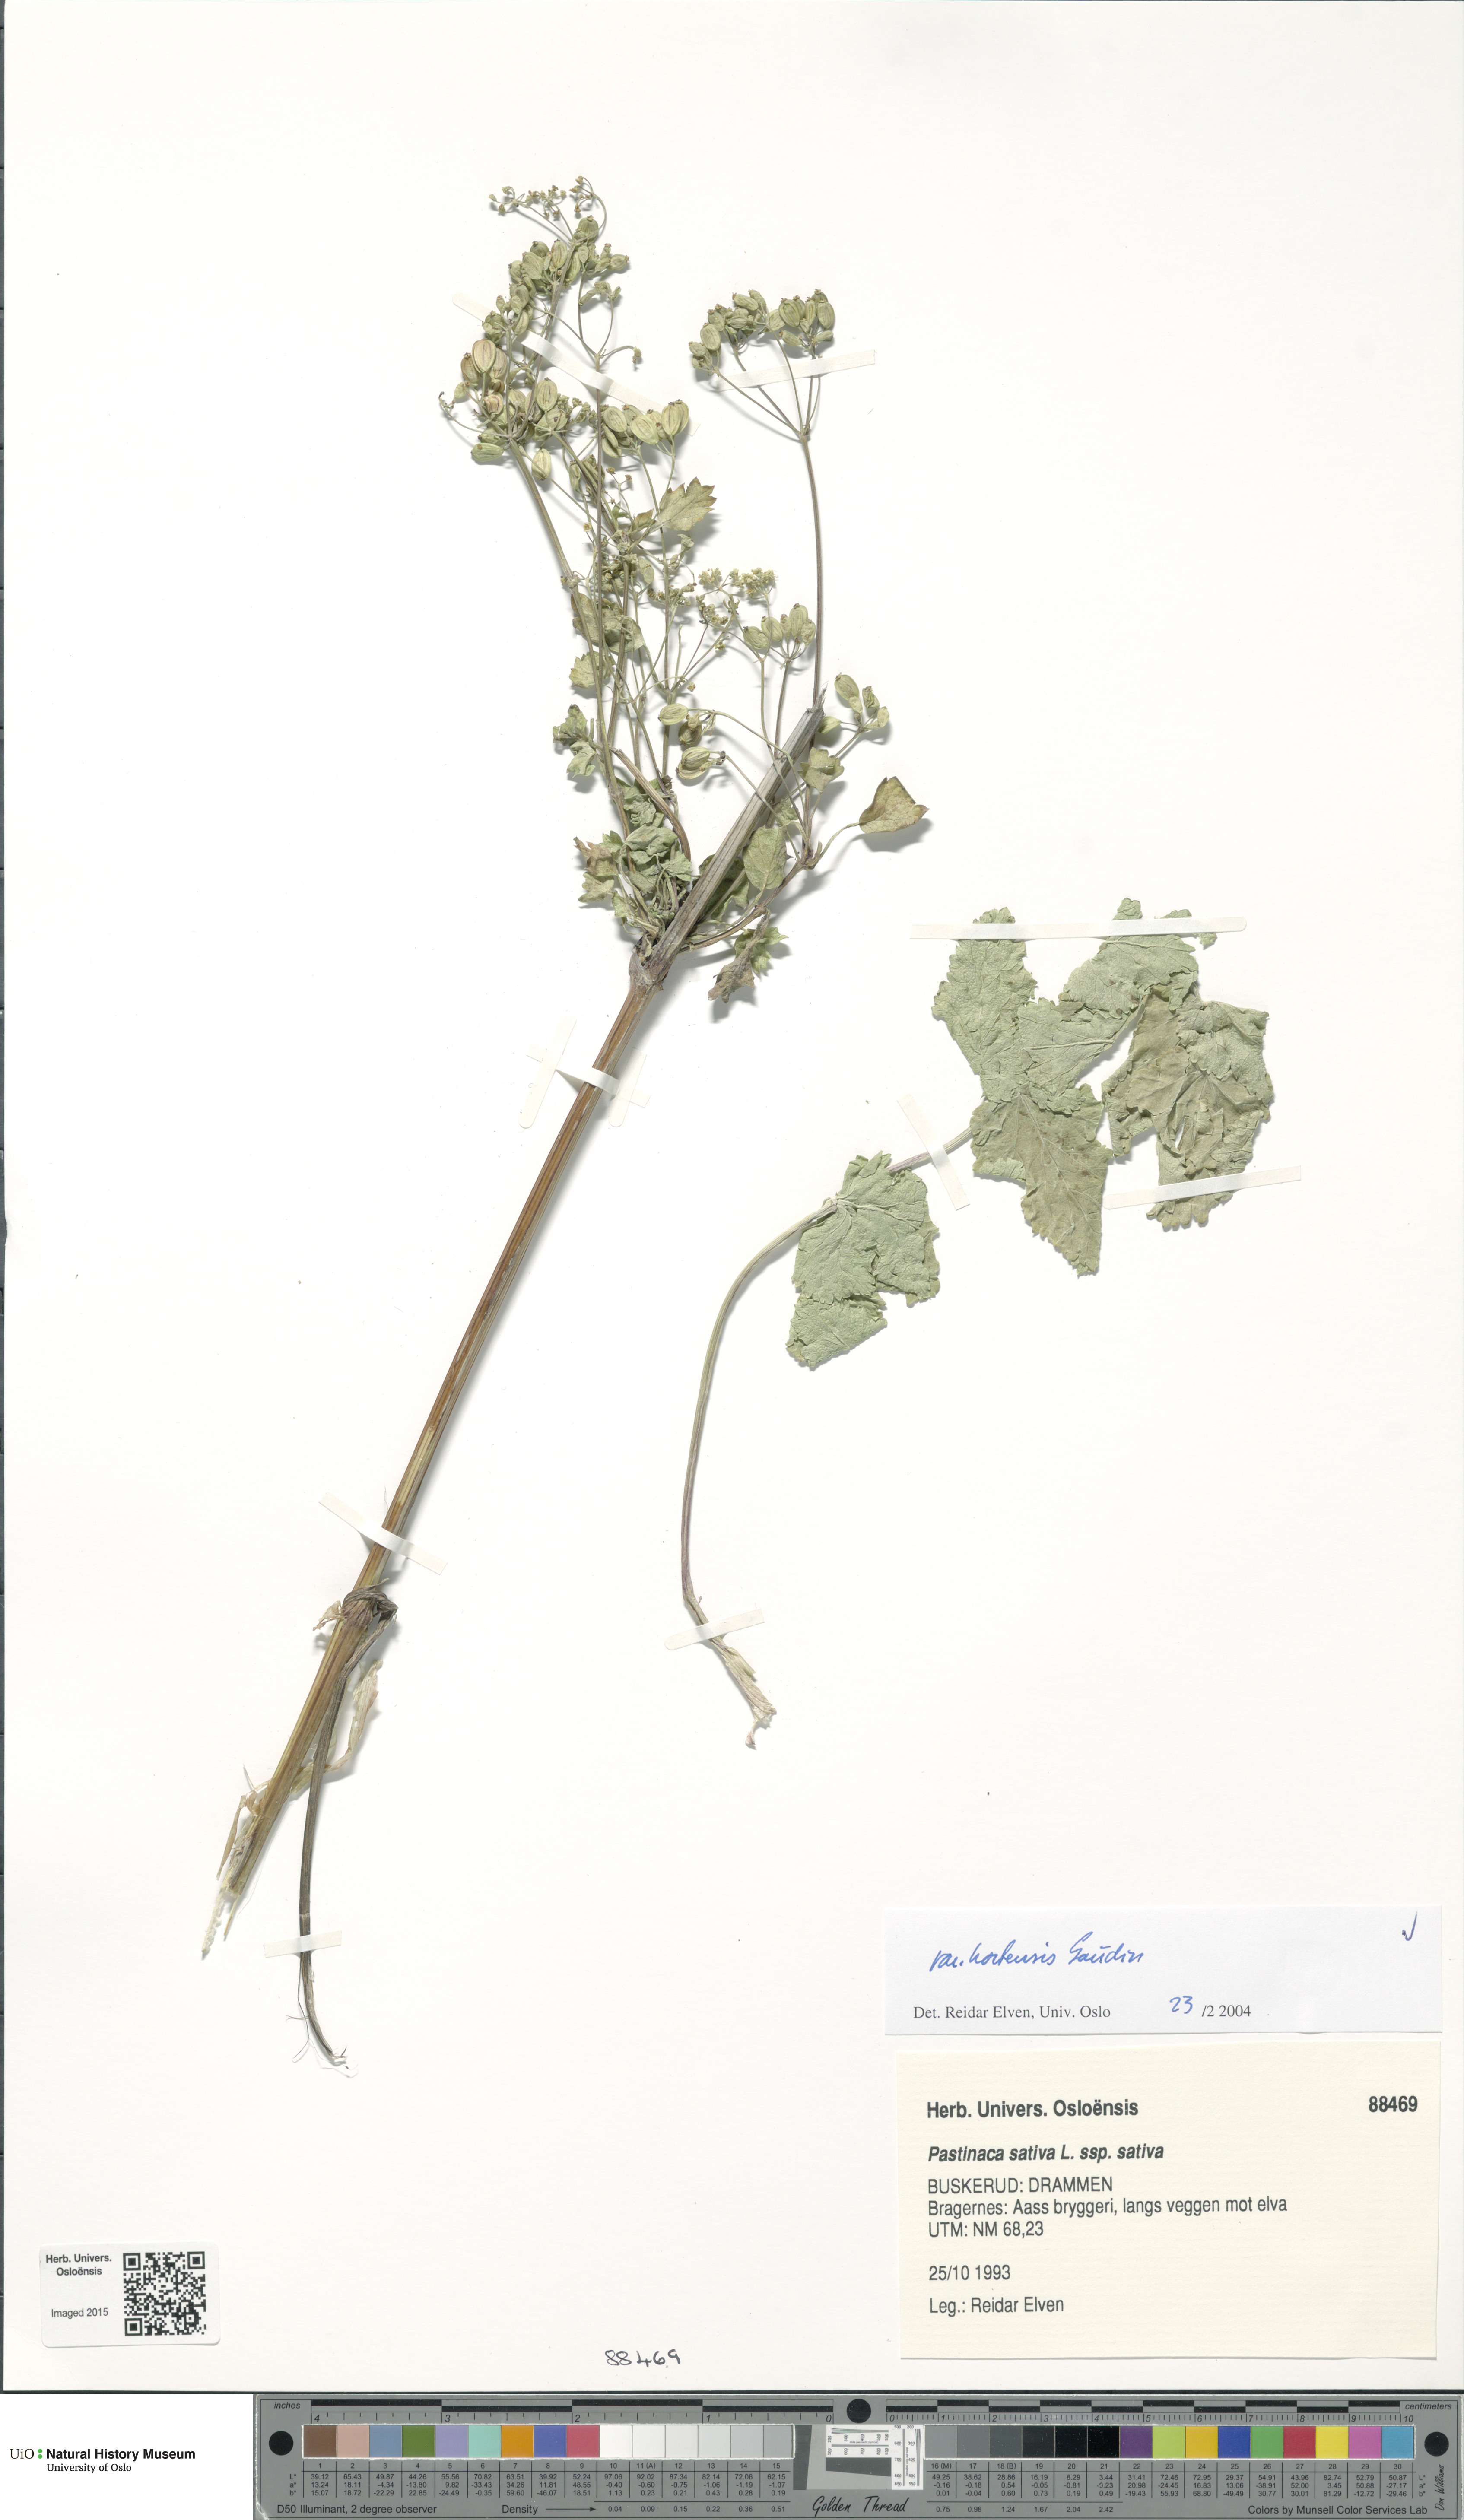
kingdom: Plantae
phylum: Tracheophyta
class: Magnoliopsida
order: Apiales
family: Apiaceae
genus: Pastinaca
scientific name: Pastinaca sativa
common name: Wild parsnip
